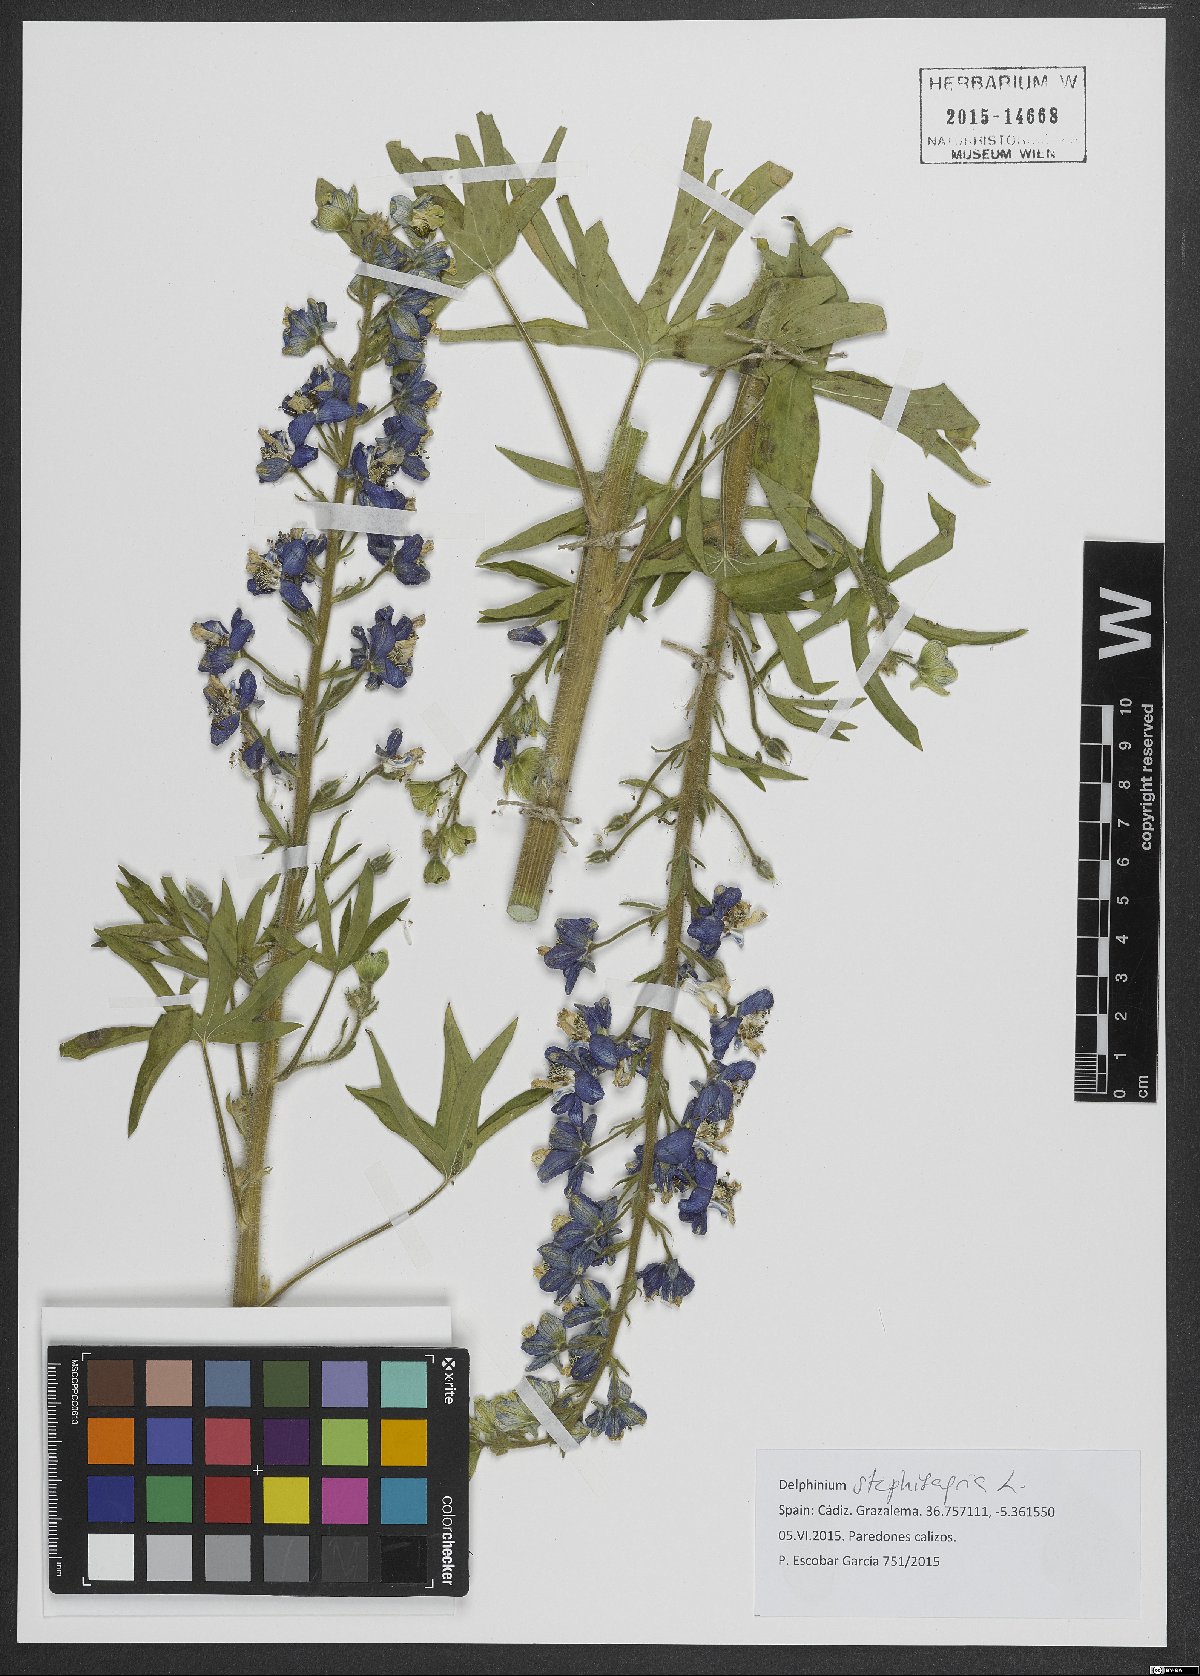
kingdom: Plantae
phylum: Tracheophyta
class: Magnoliopsida
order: Ranunculales
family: Ranunculaceae
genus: Staphisagria
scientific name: Staphisagria macrosperma
